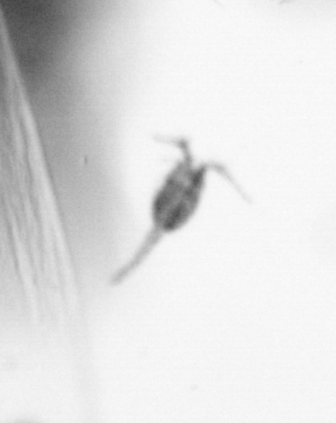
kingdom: Animalia
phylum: Arthropoda
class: Copepoda
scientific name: Copepoda
